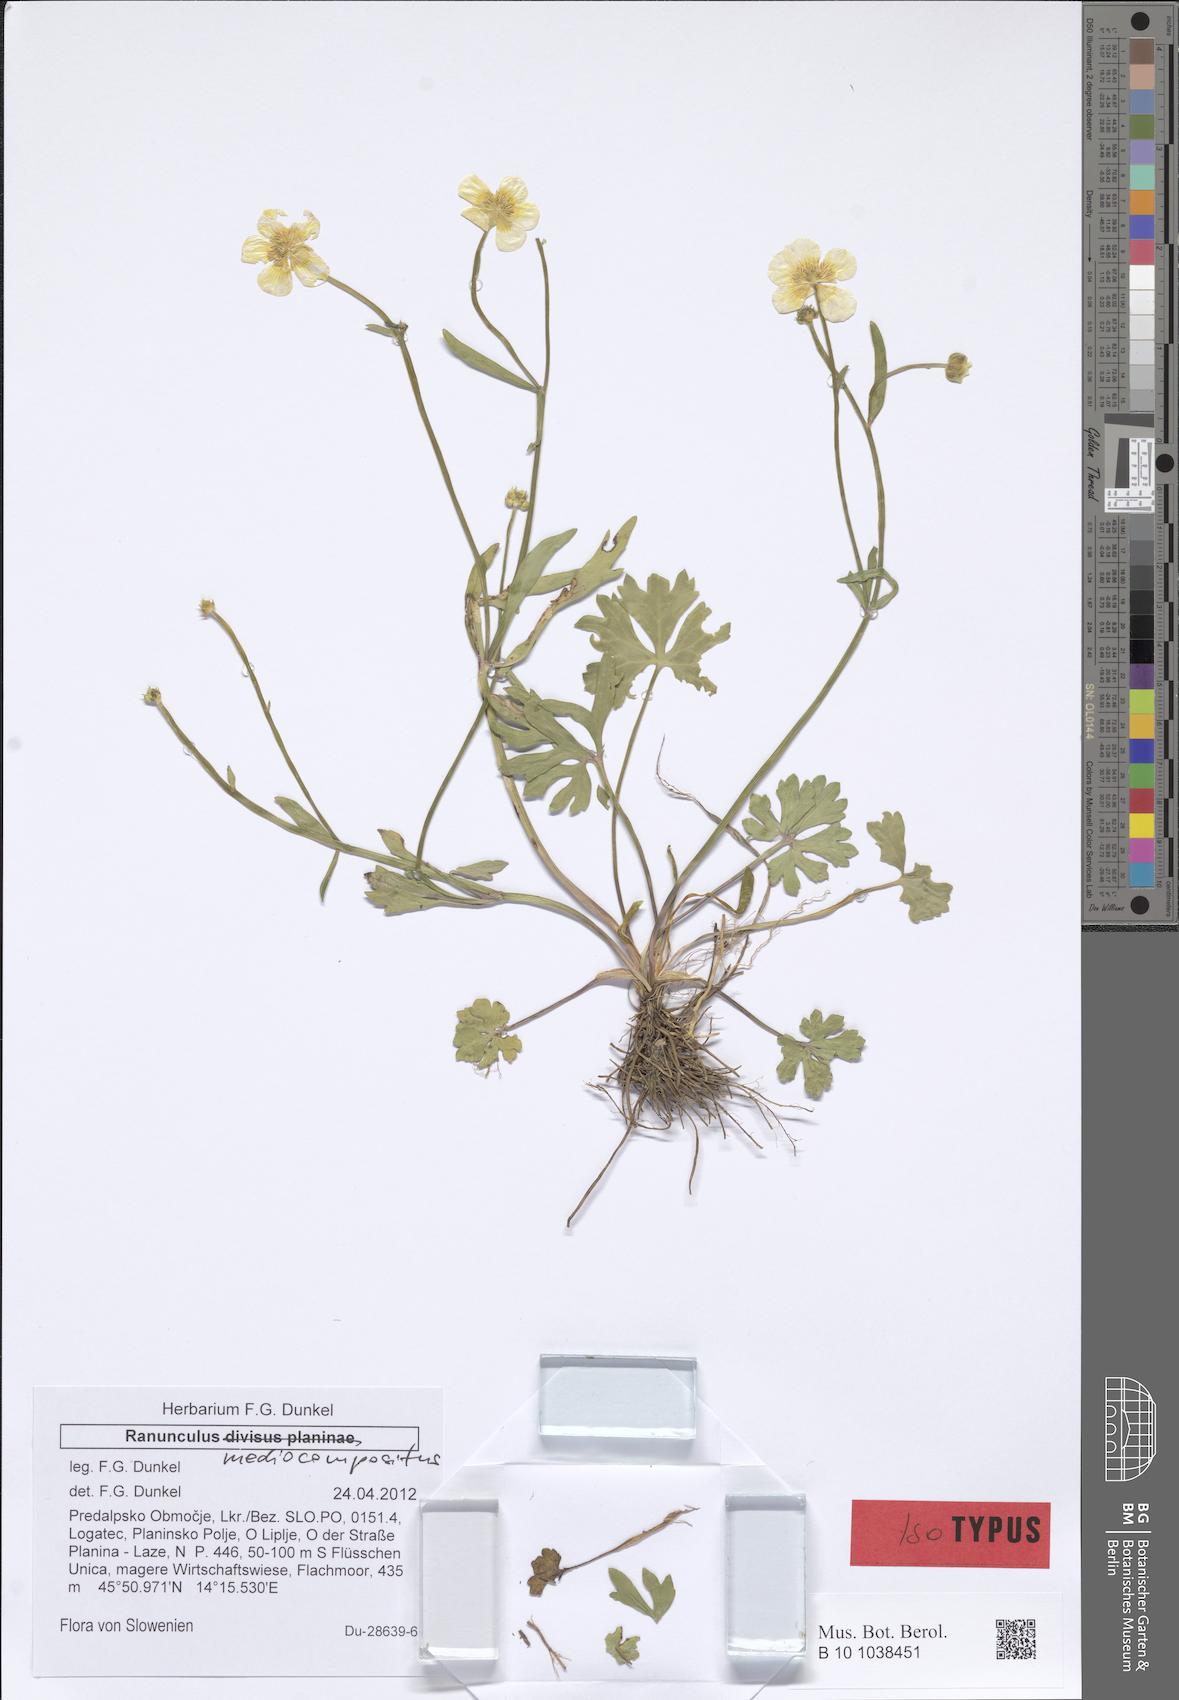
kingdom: Plantae
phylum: Tracheophyta
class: Magnoliopsida
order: Ranunculales
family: Ranunculaceae
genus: Ranunculus
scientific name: Ranunculus notabilis
